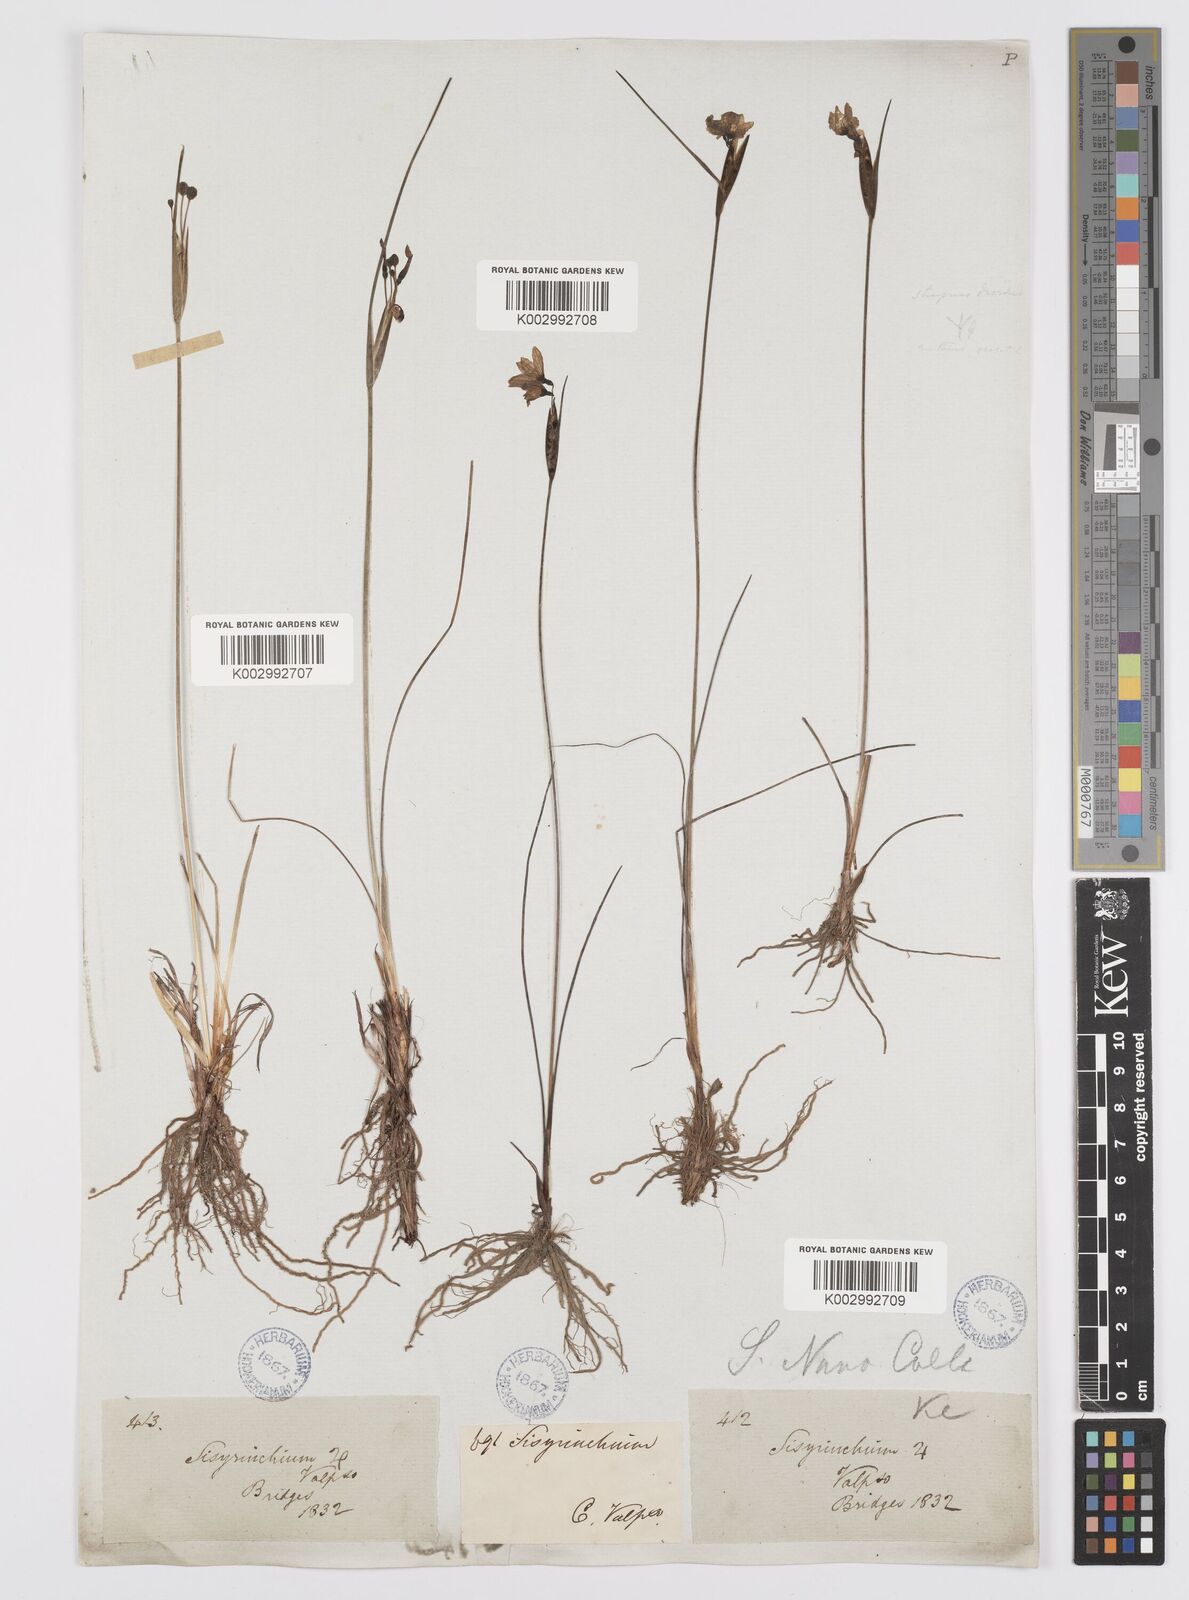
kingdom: Plantae
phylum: Tracheophyta
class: Liliopsida
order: Asparagales
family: Iridaceae
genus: Olsynium
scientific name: Olsynium scirpoideum
